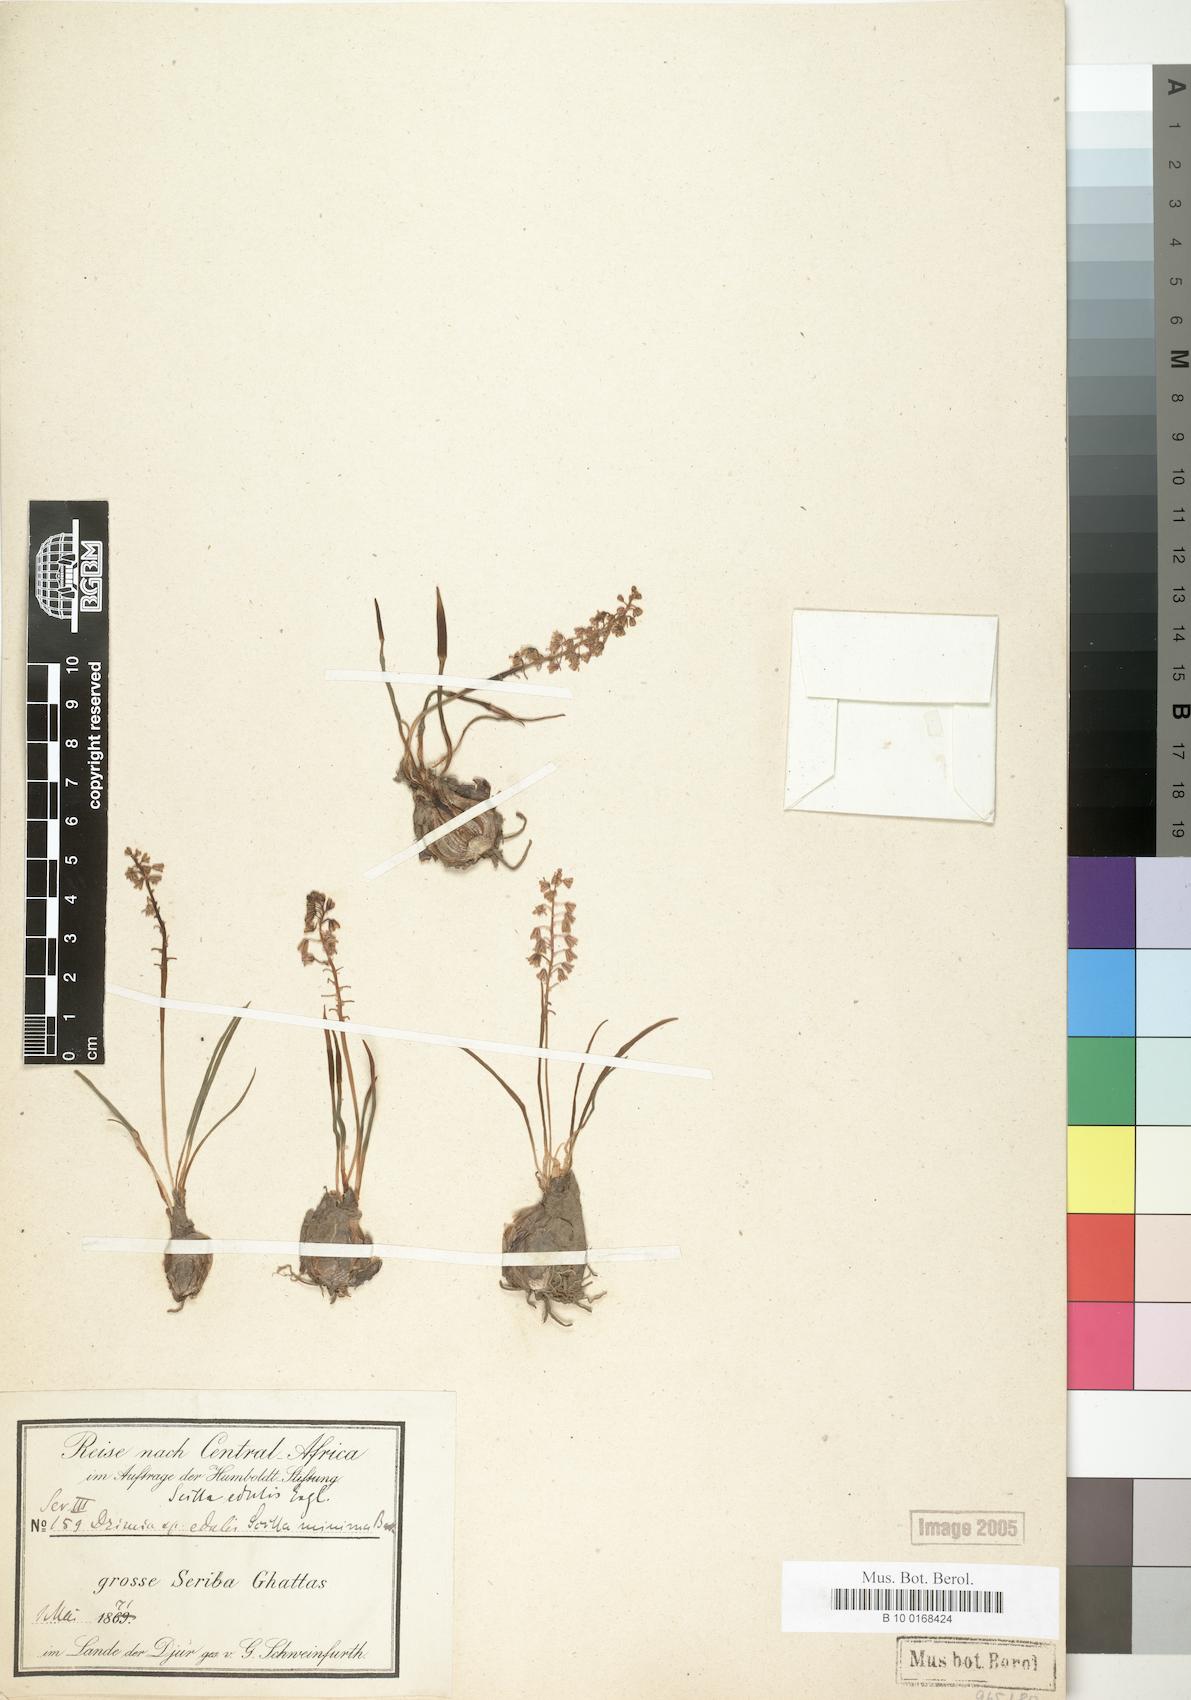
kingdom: Plantae
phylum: Tracheophyta
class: Liliopsida
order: Asparagales
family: Asparagaceae
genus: Ledebouria
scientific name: Ledebouria edulis
